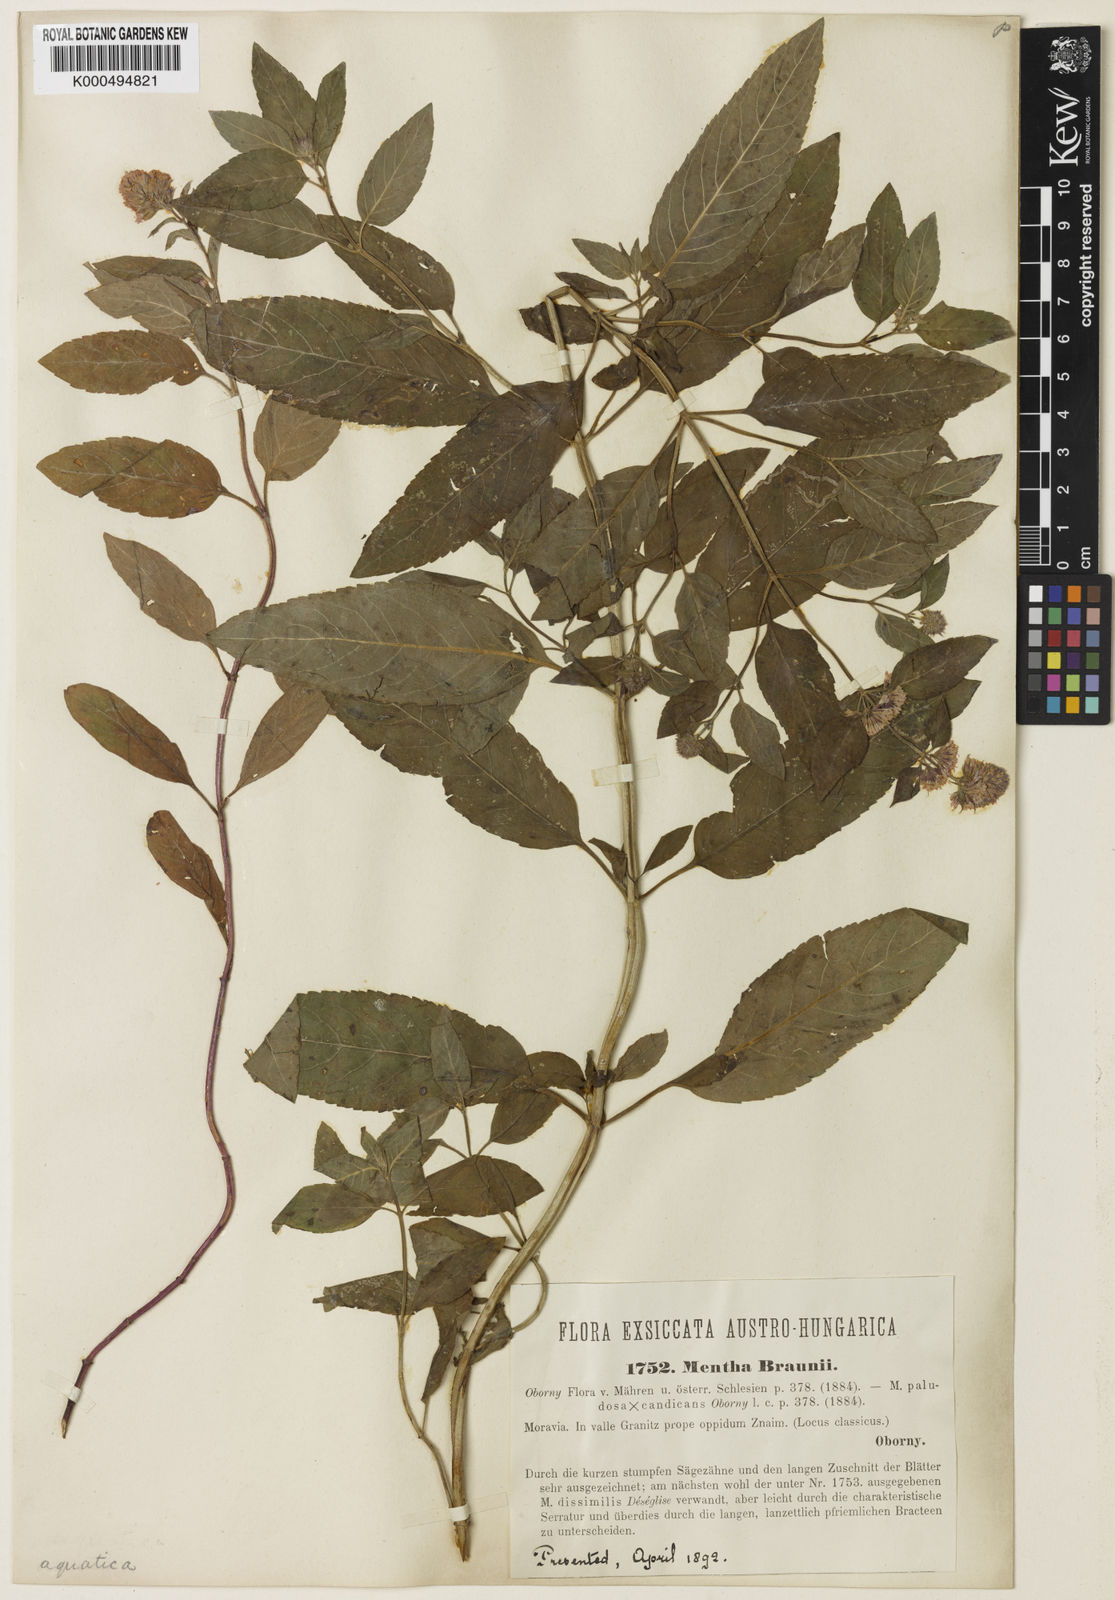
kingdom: Plantae
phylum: Tracheophyta
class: Magnoliopsida
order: Lamiales
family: Lamiaceae
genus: Mentha
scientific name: Mentha aquatica
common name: Water mint
